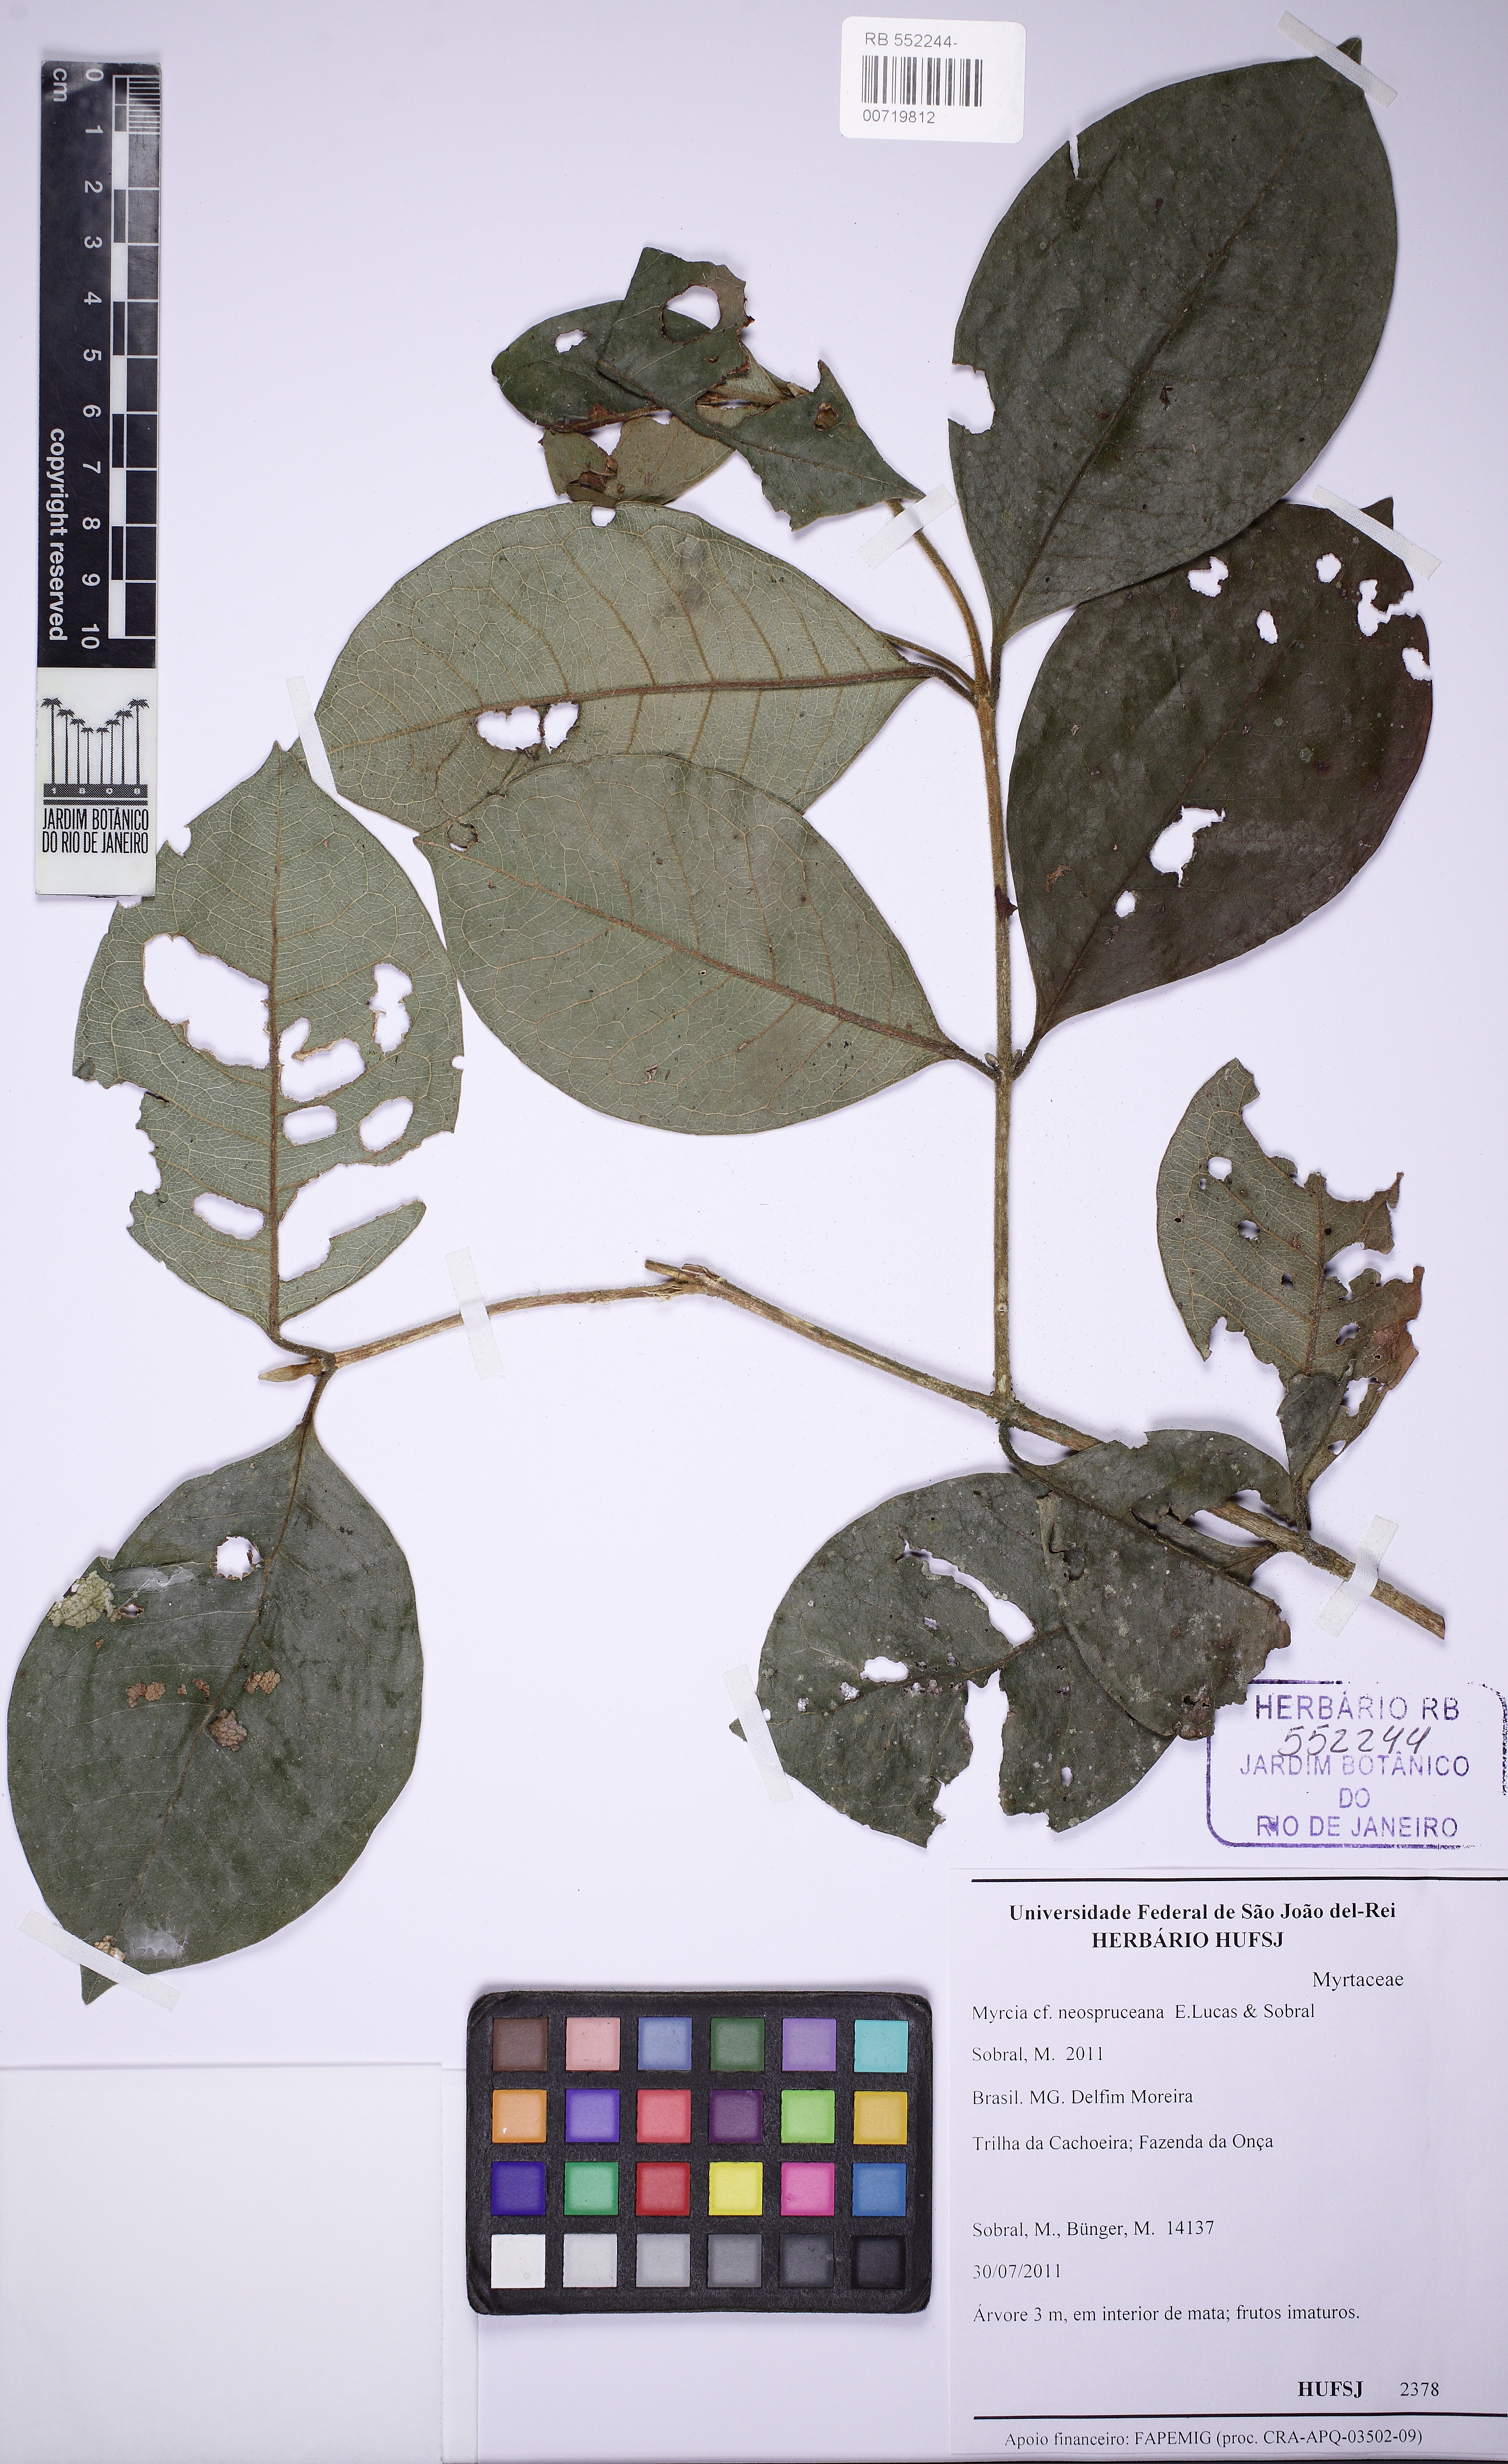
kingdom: Plantae
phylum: Tracheophyta
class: Magnoliopsida
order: Myrtales
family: Myrtaceae
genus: Myrcia
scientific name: Myrcia squamata
